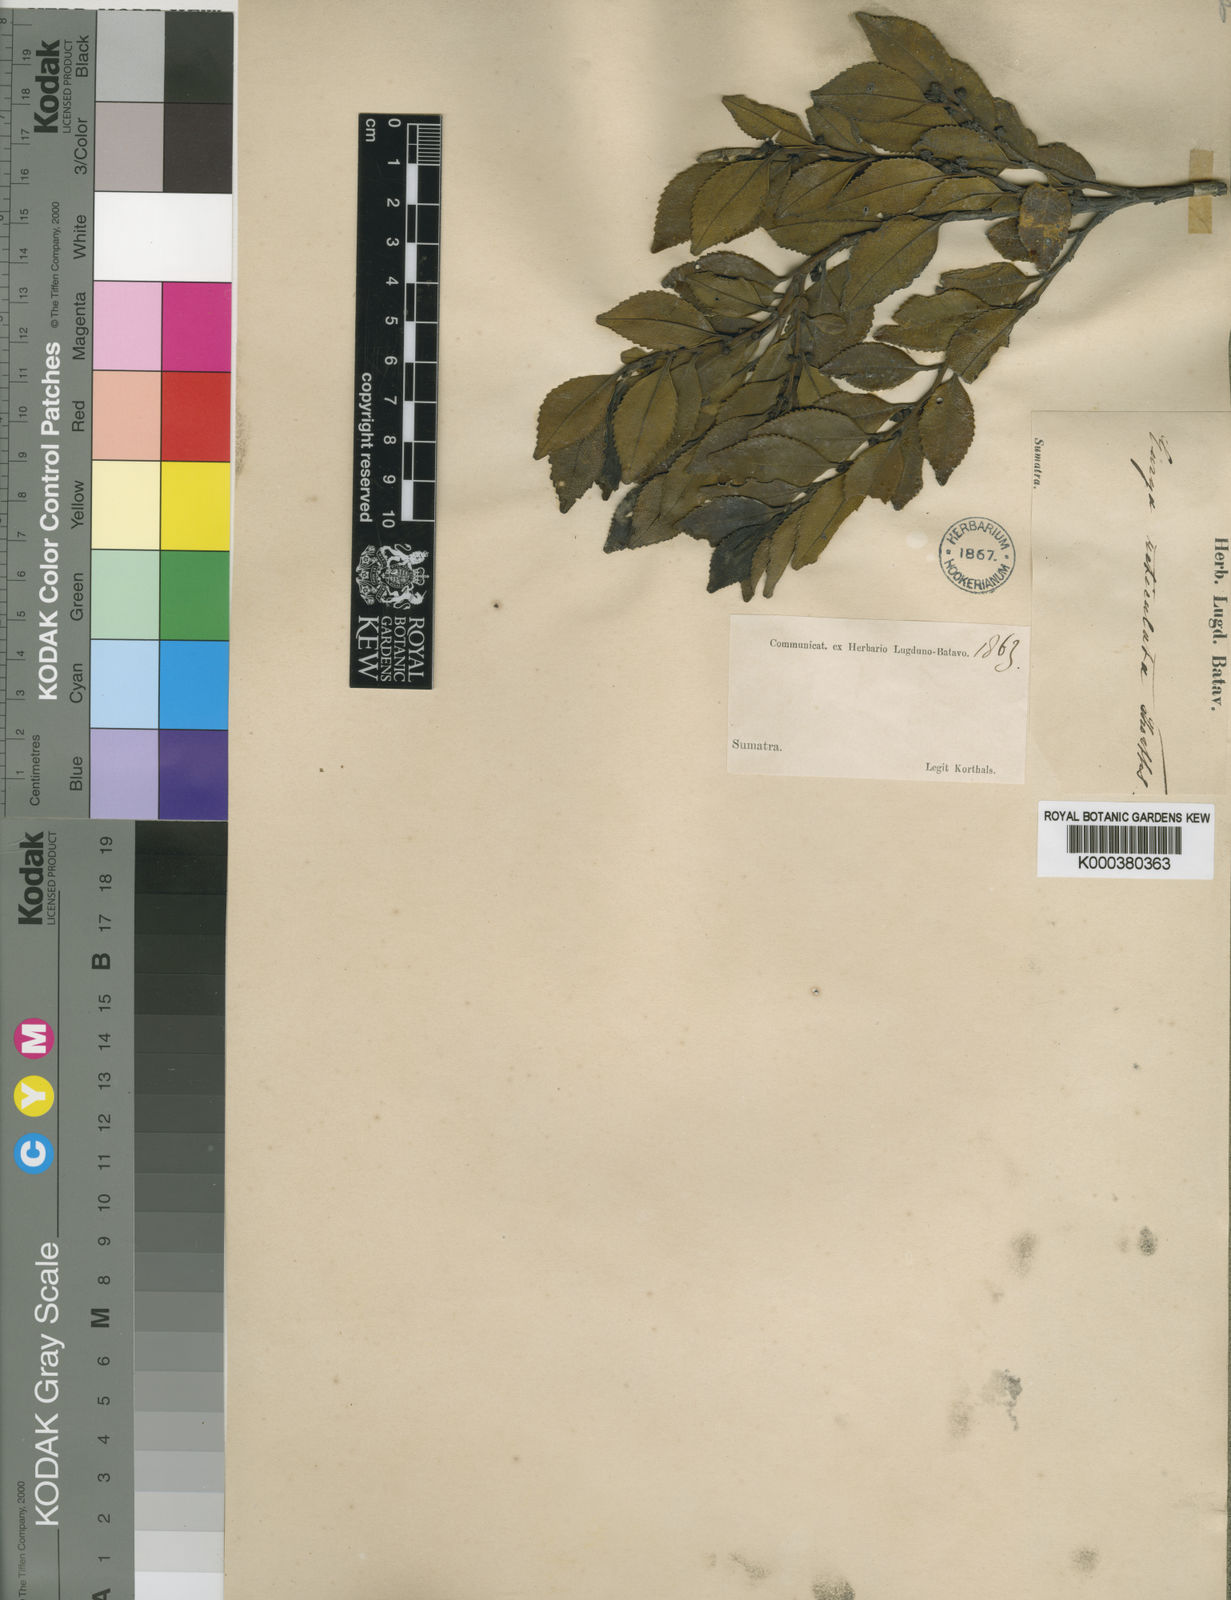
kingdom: Plantae
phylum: Tracheophyta
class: Magnoliopsida
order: Ericales
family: Pentaphylacaceae
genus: Eurya
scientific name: Eurya obovata
